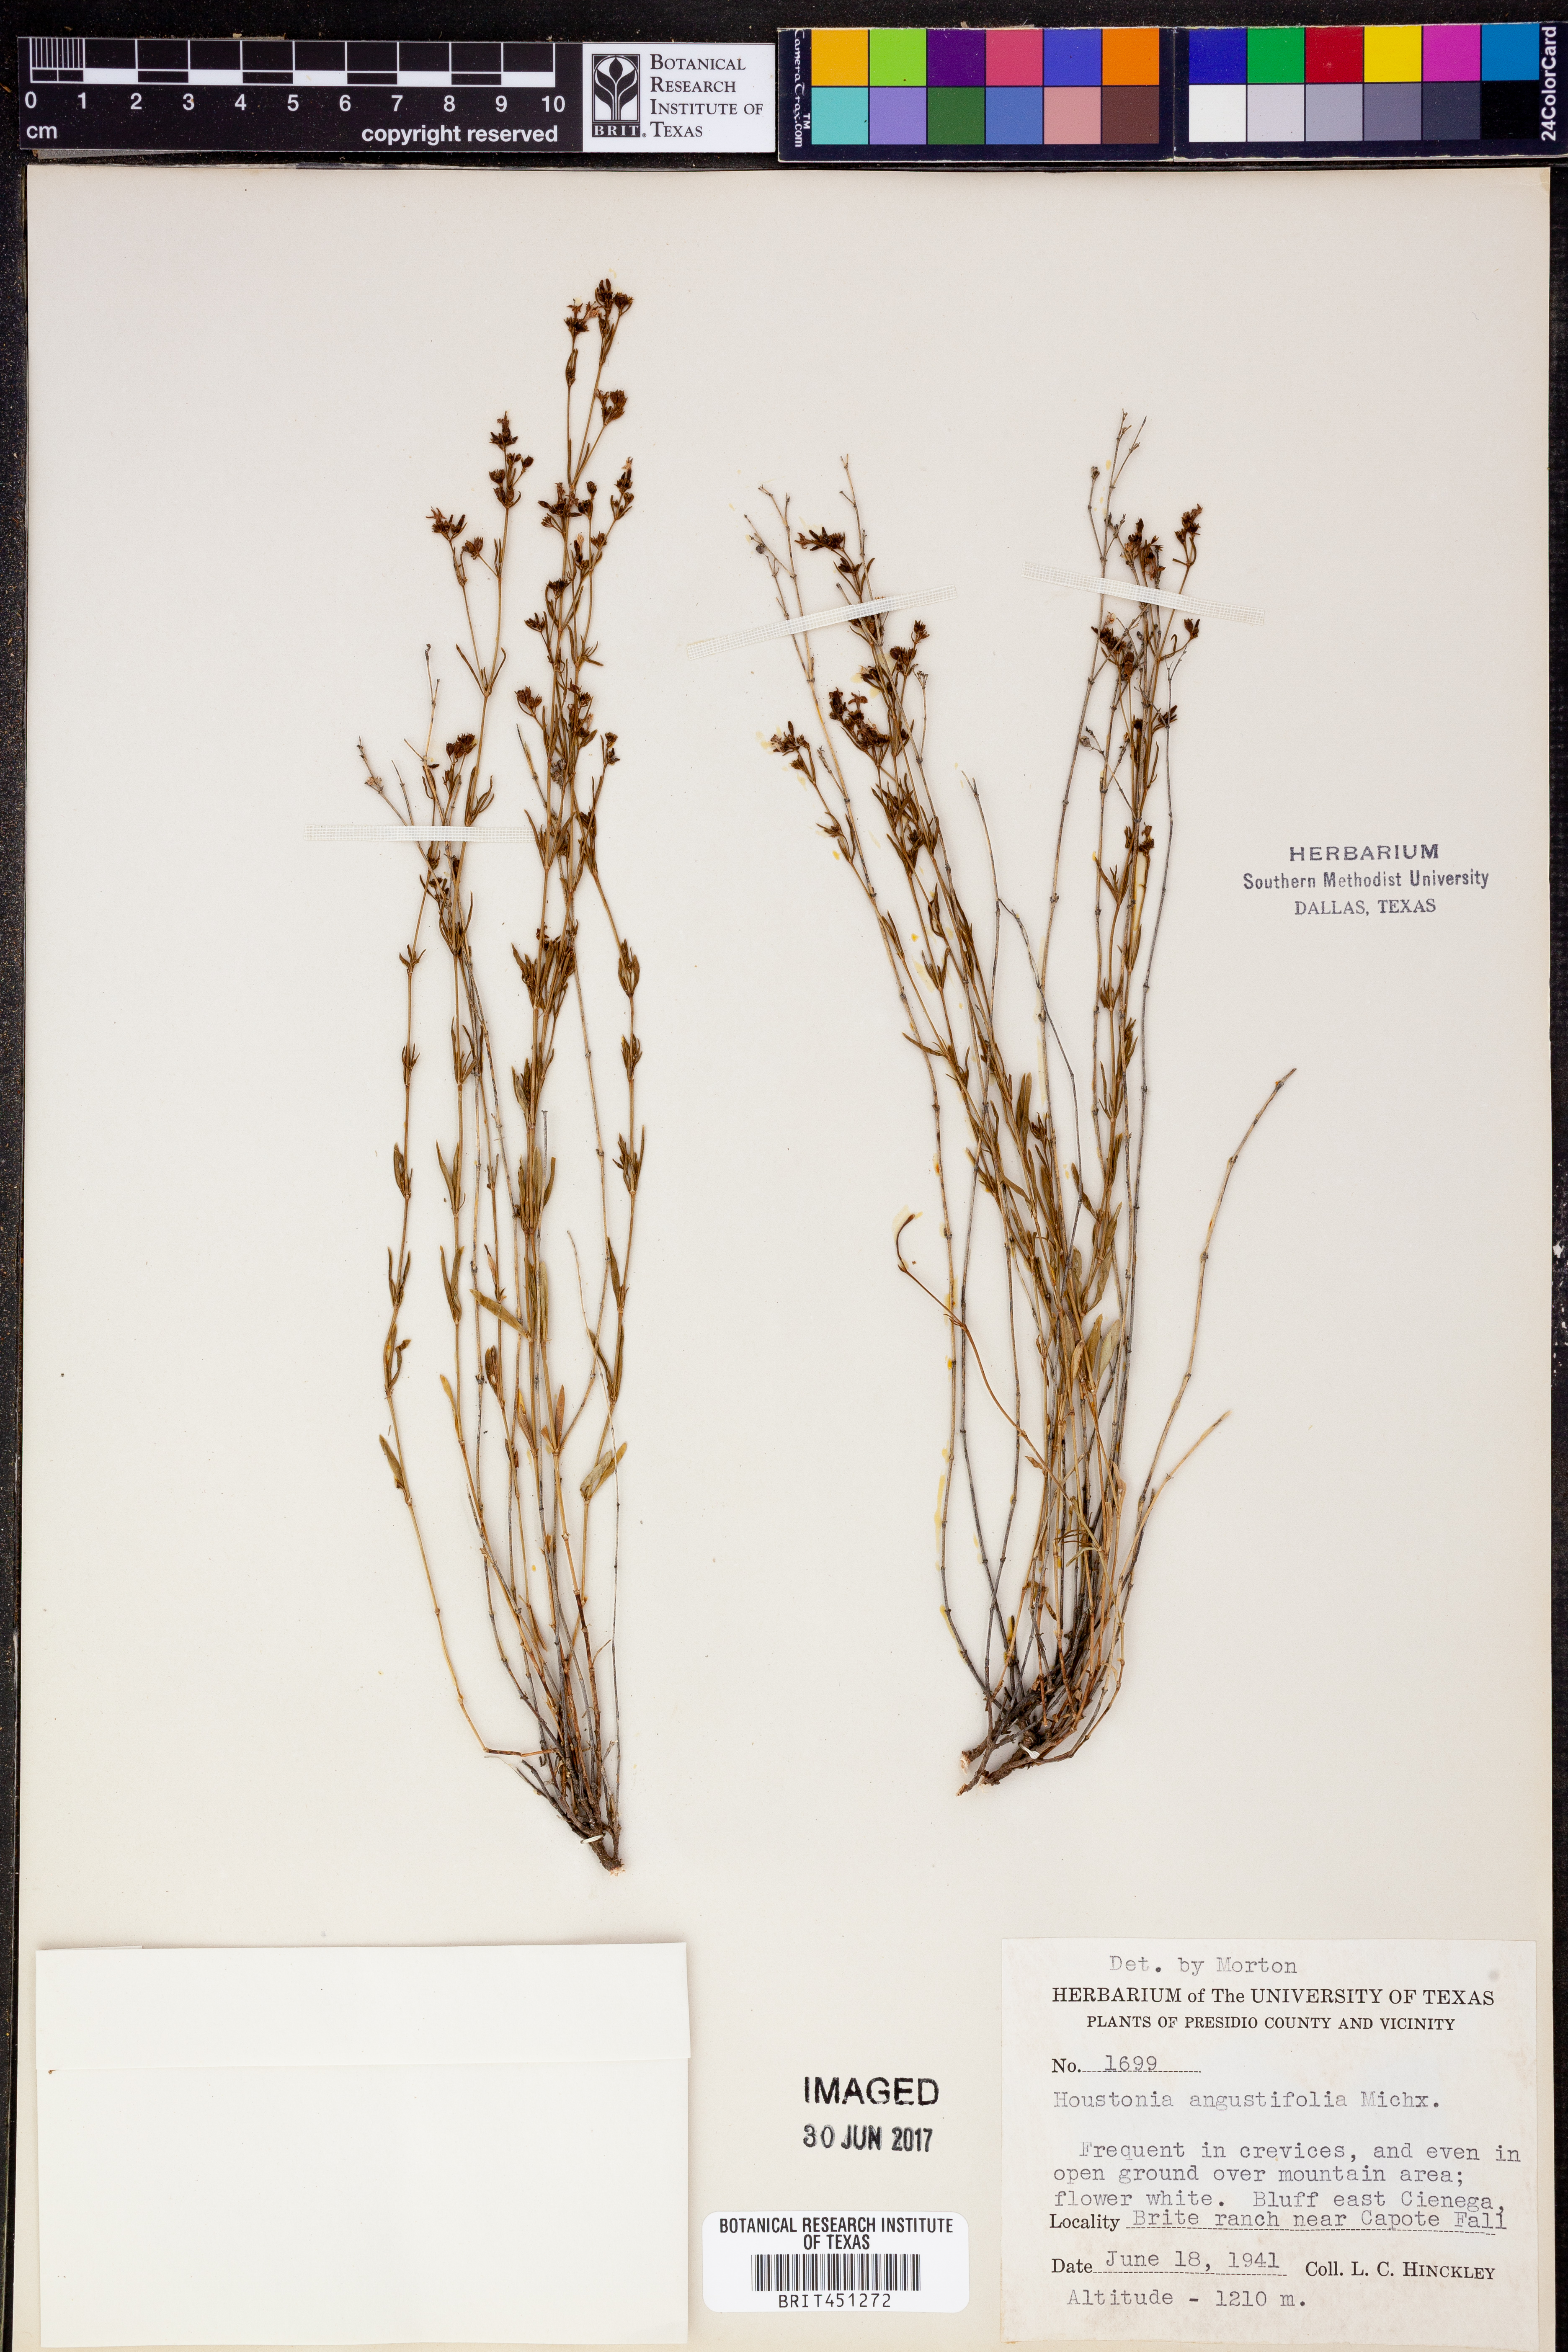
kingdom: Plantae
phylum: Tracheophyta
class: Magnoliopsida
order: Gentianales
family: Rubiaceae
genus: Stenaria
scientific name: Stenaria nigricans
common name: Diamondflowers
